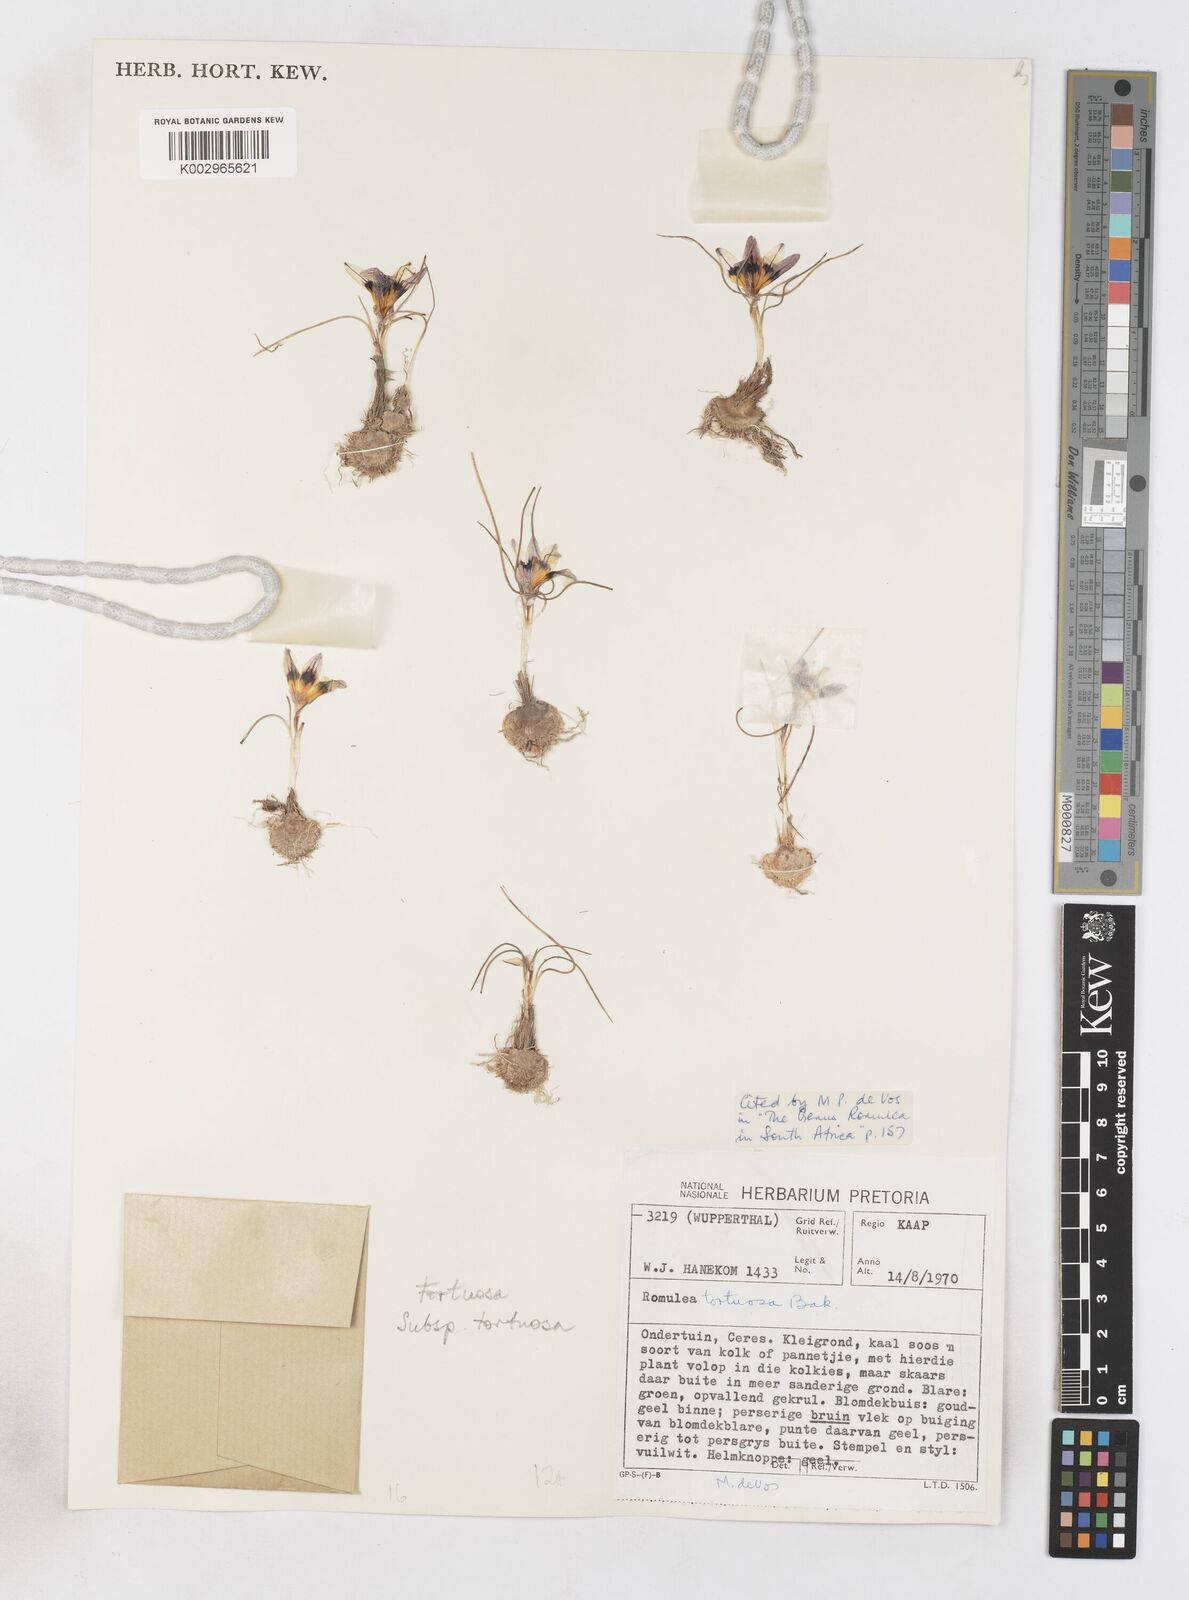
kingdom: Plantae
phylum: Tracheophyta
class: Liliopsida
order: Asparagales
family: Iridaceae
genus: Romulea
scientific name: Romulea tortuosa
